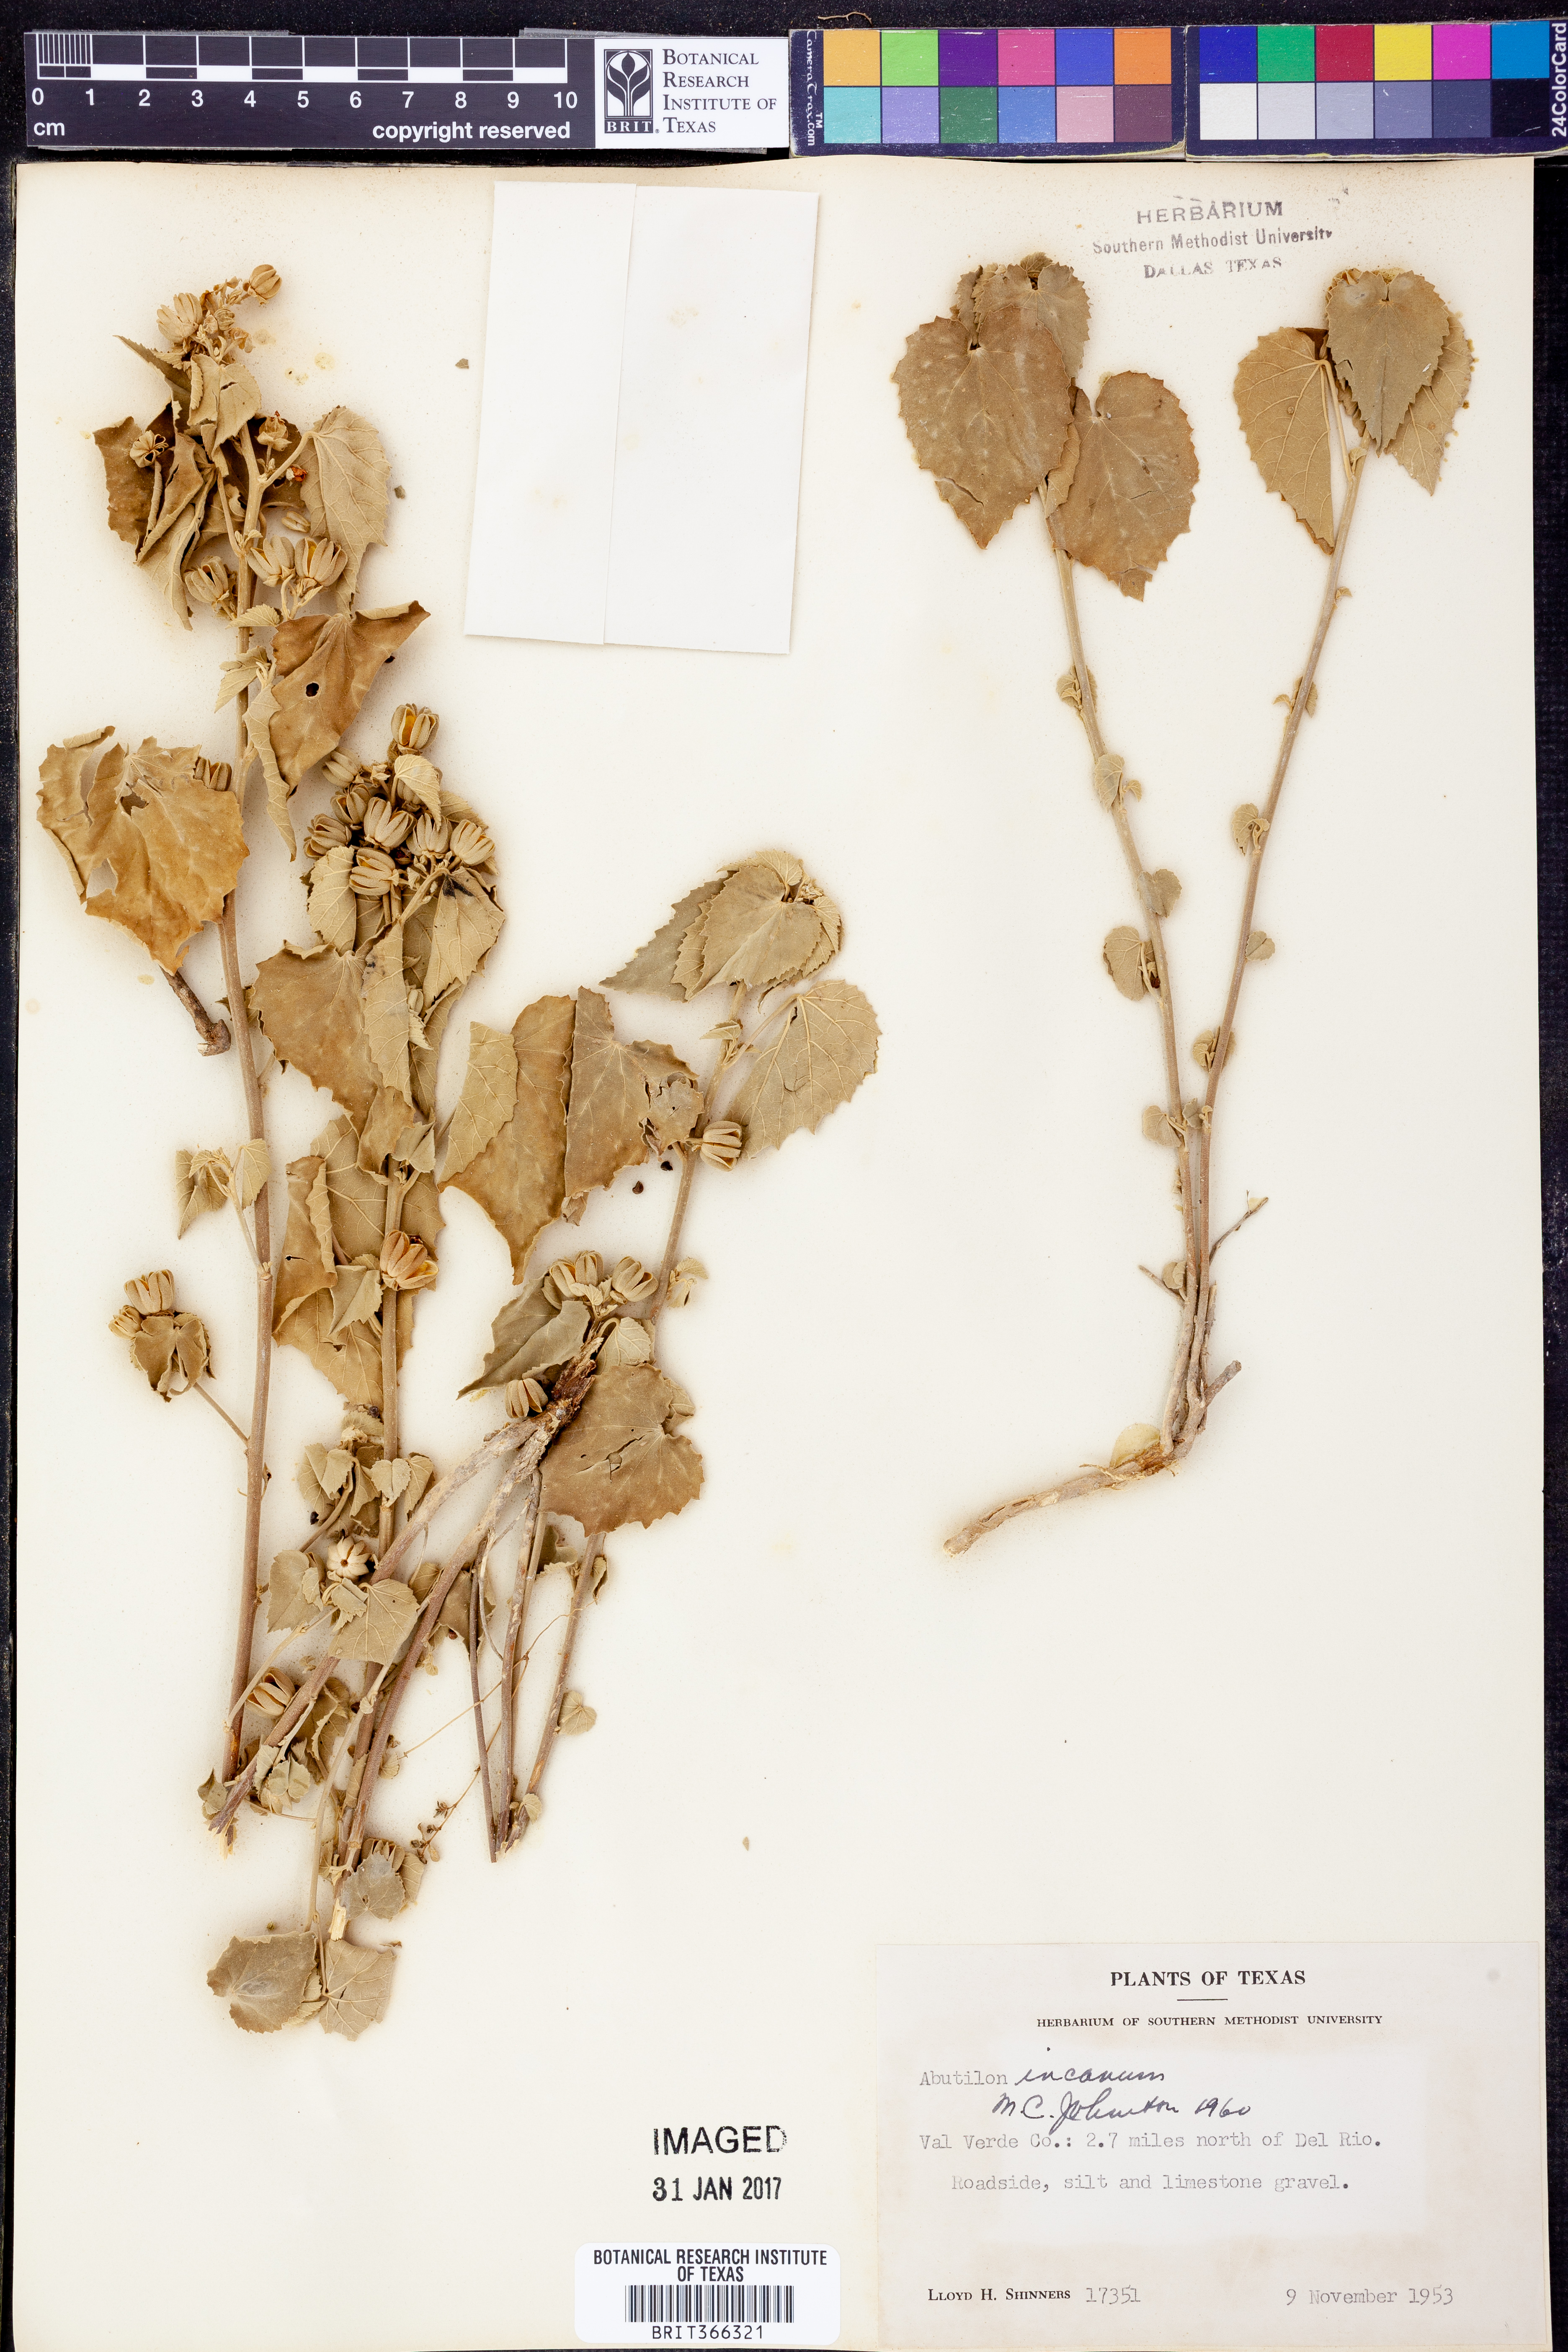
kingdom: Plantae
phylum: Tracheophyta
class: Magnoliopsida
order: Malvales
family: Malvaceae
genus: Abutilon
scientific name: Abutilon incanum
